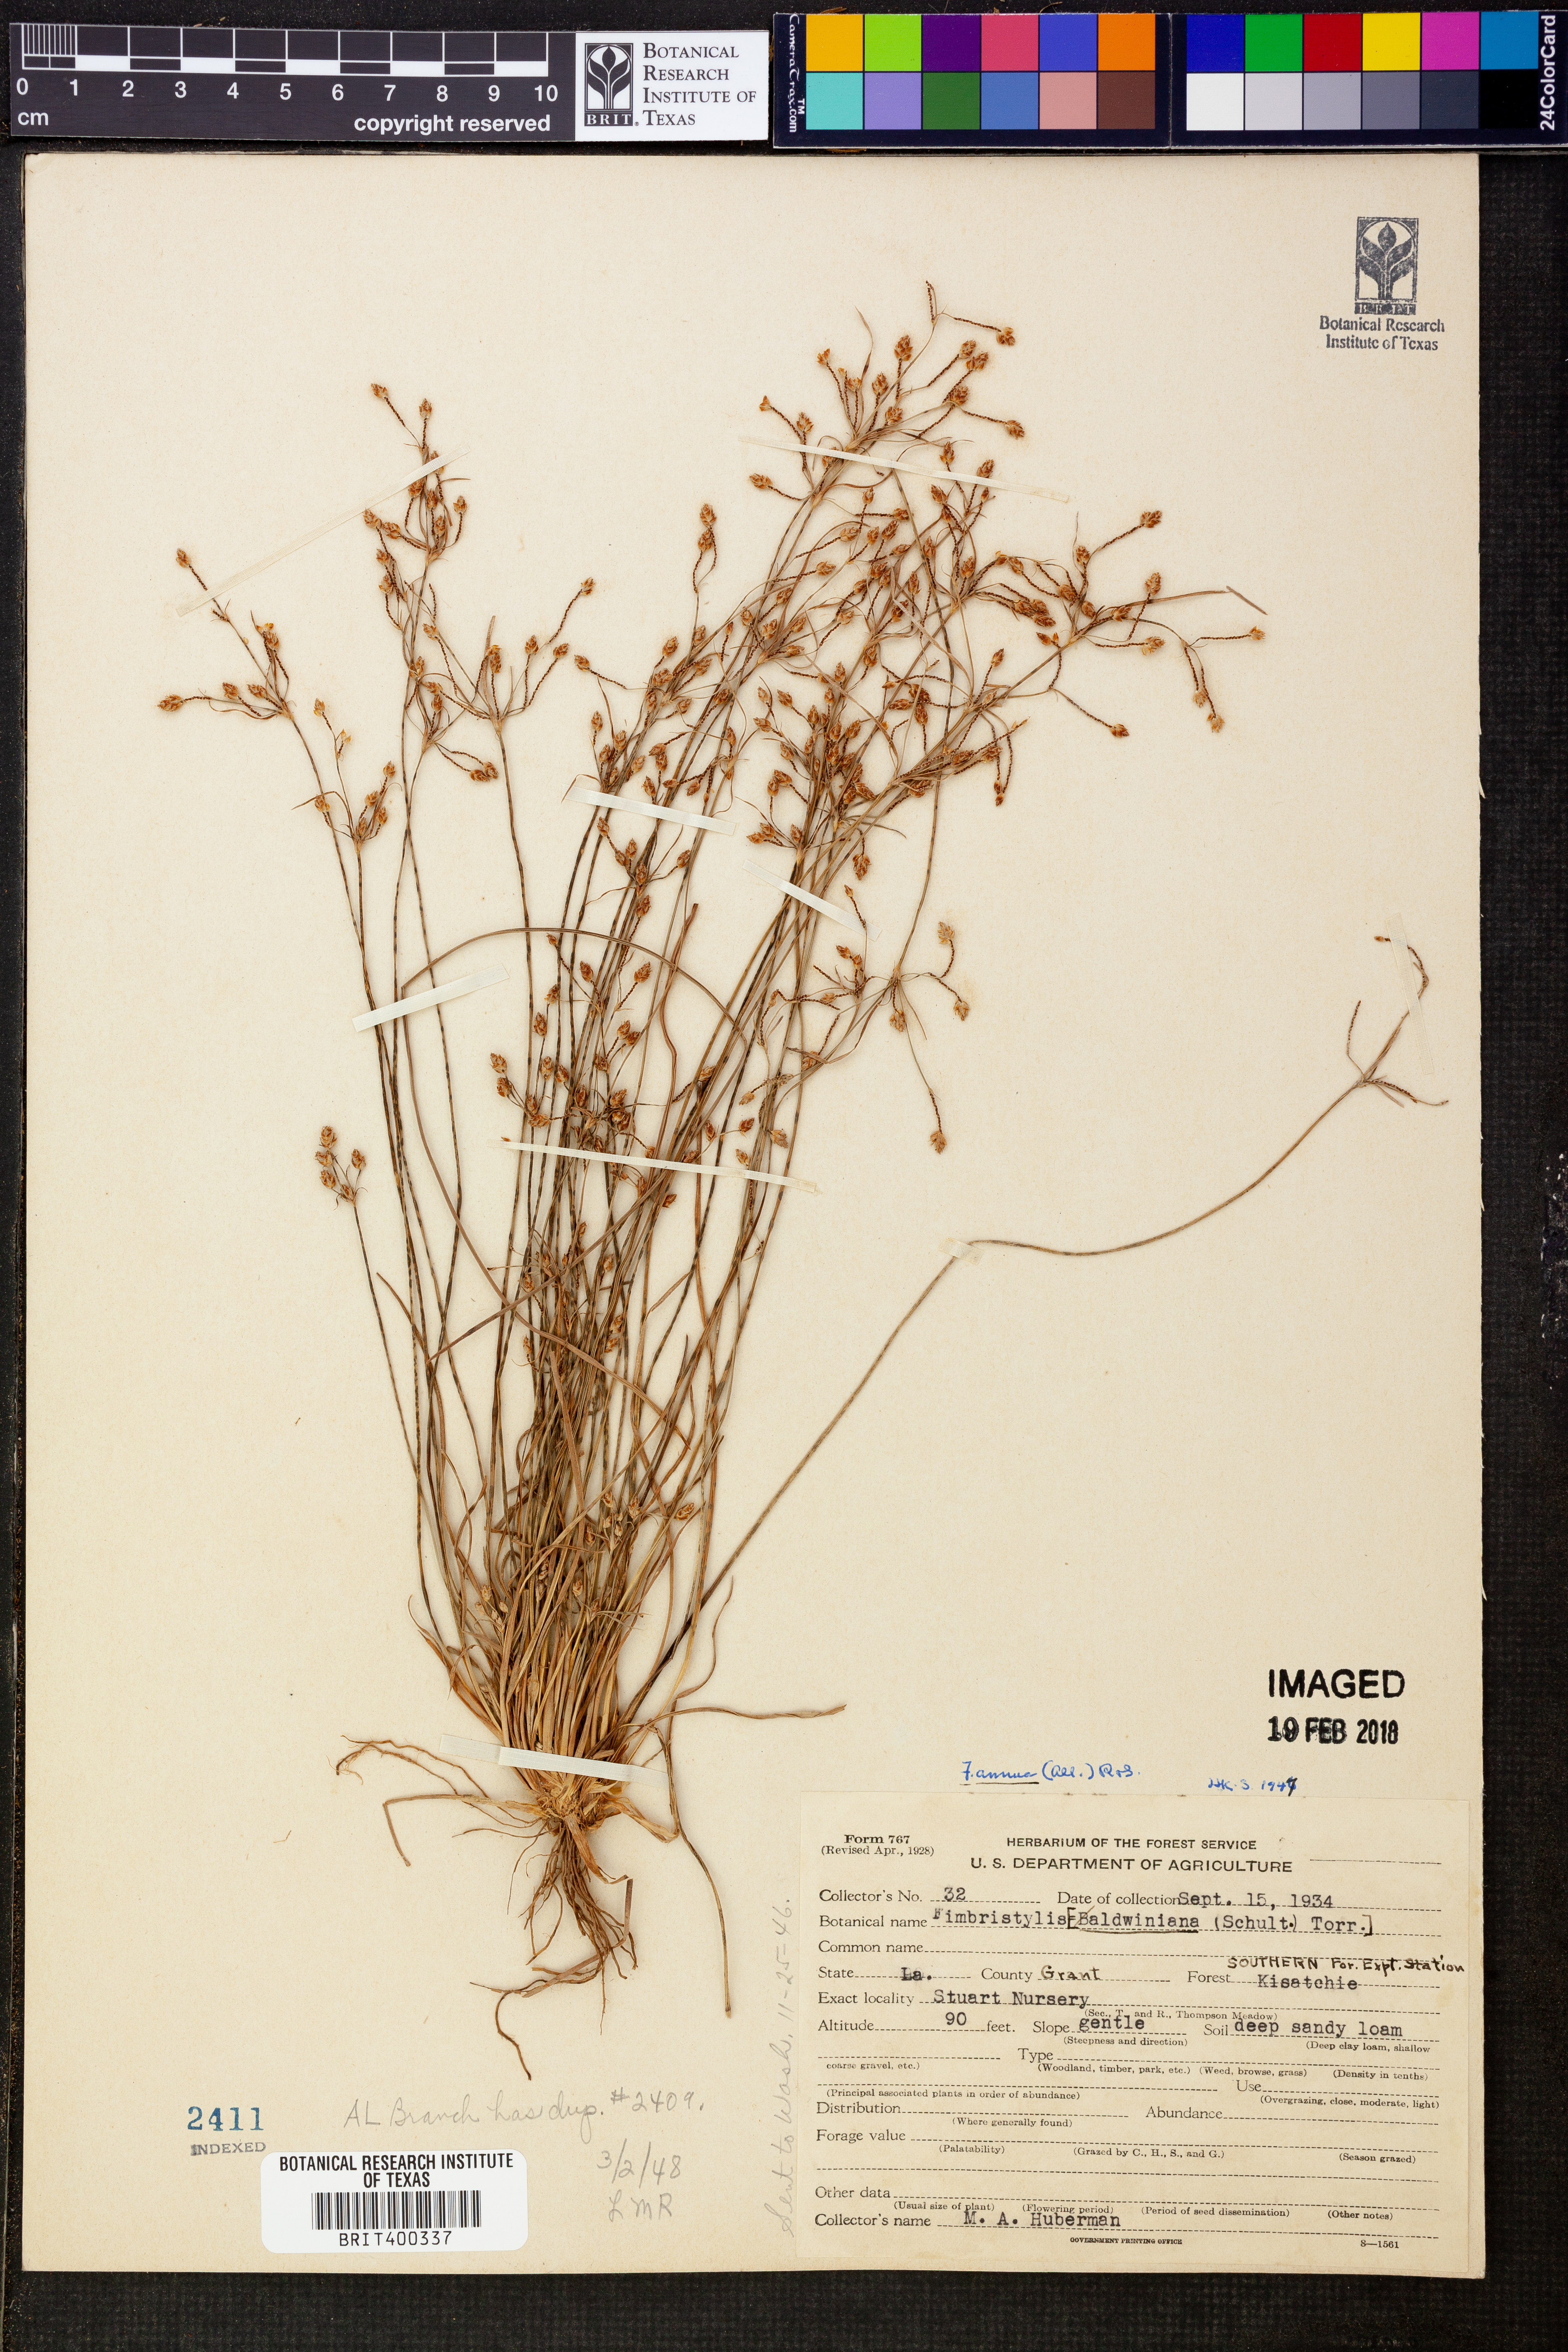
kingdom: Plantae
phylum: Tracheophyta
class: Liliopsida
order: Poales
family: Cyperaceae
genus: Fimbristylis
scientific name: Fimbristylis dichotoma
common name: Forked fimbry
